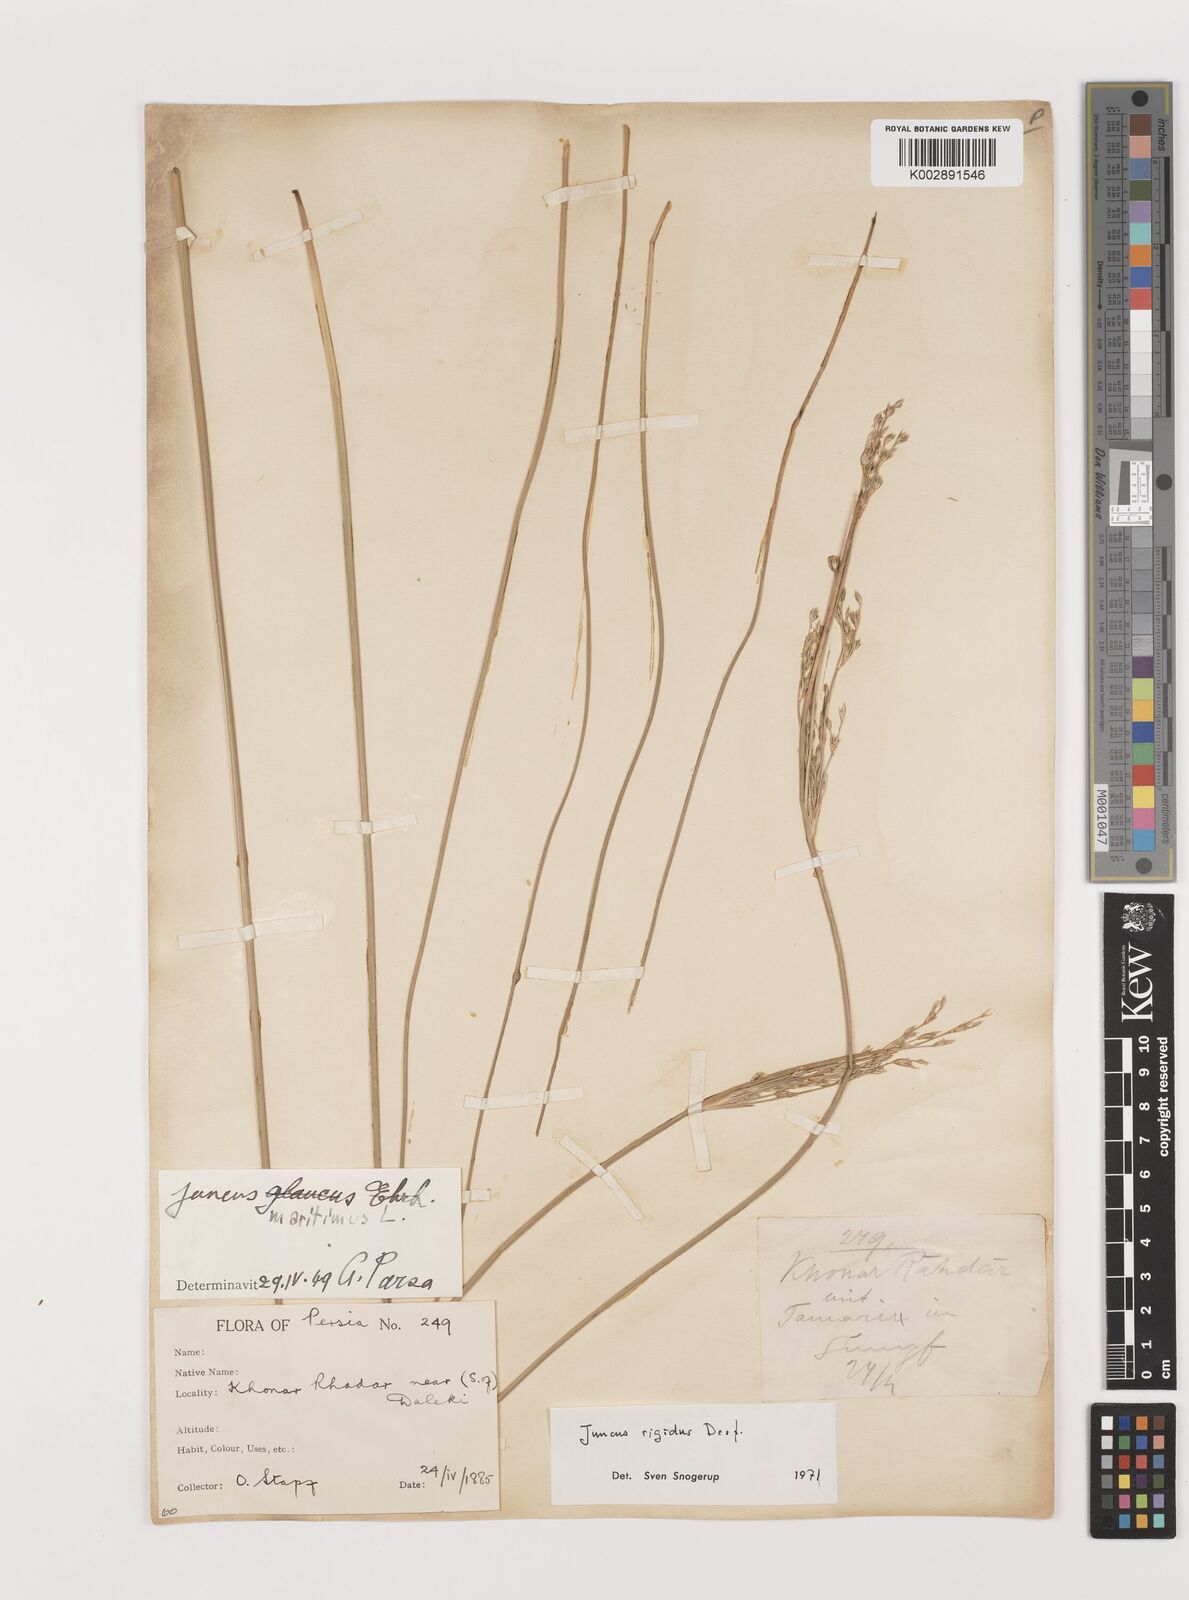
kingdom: Plantae
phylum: Tracheophyta
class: Liliopsida
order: Poales
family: Juncaceae
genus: Juncus
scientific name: Juncus rigidus
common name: Hard sea rush
